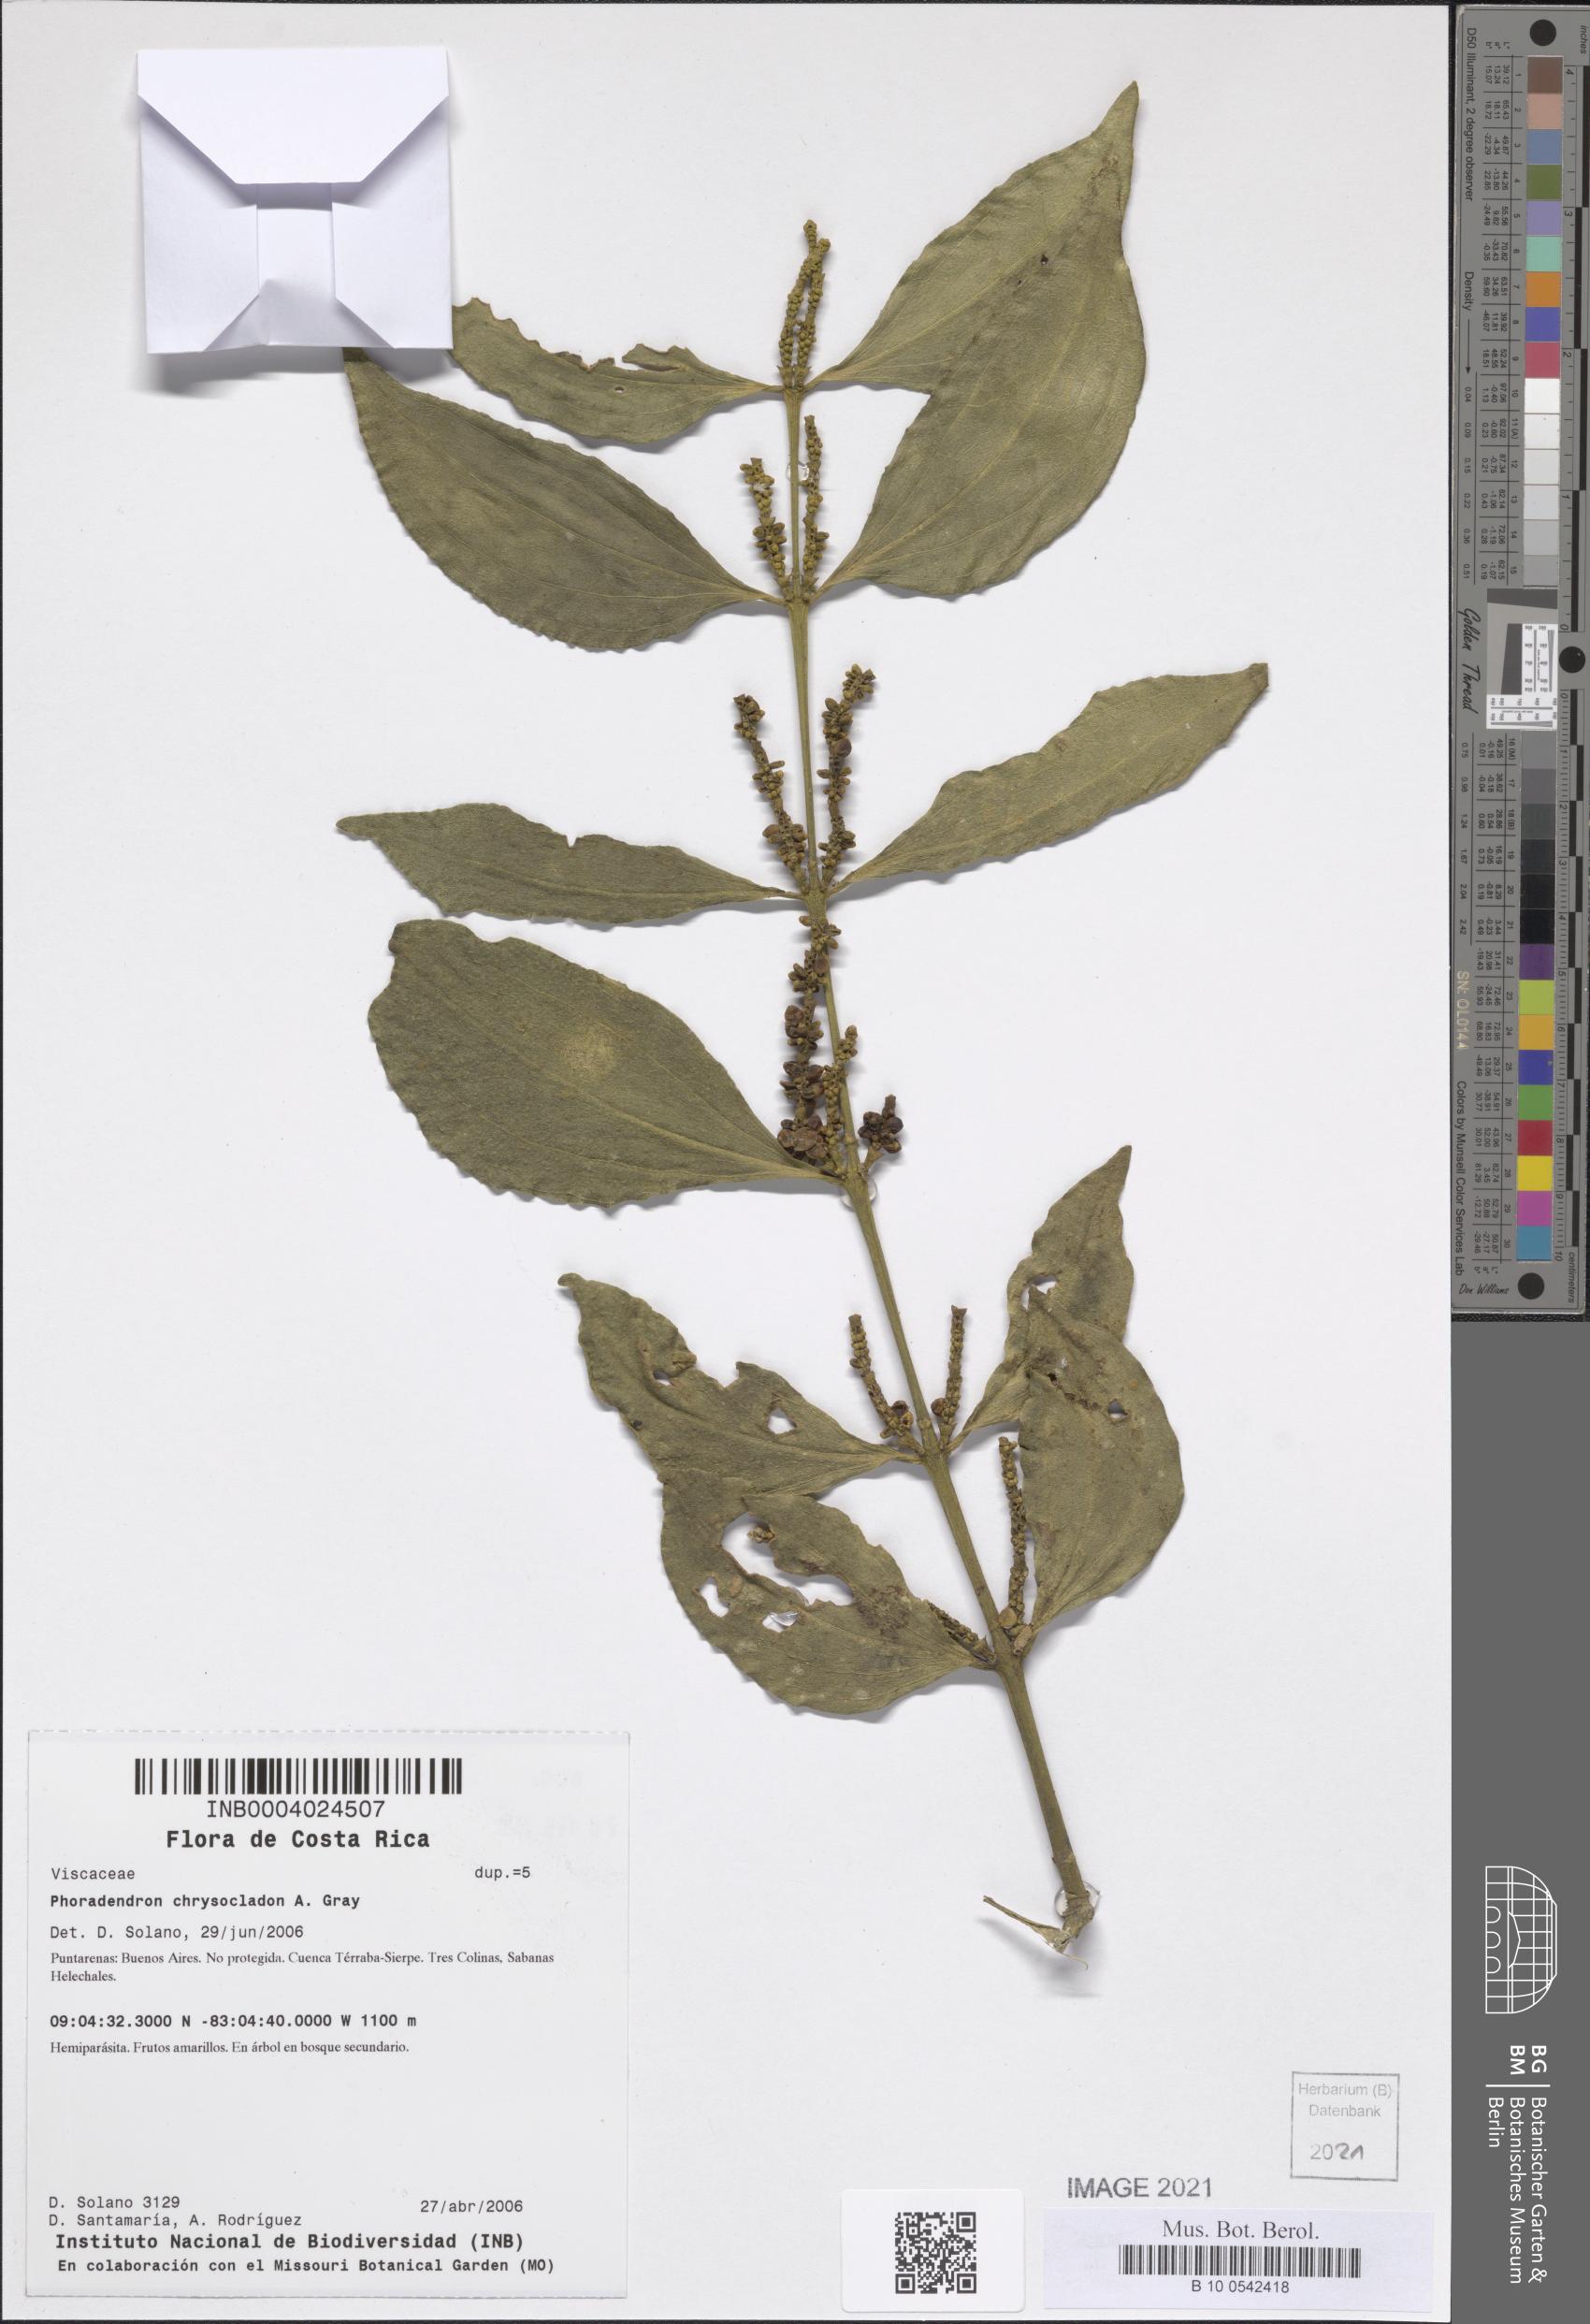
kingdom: Plantae
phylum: Tracheophyta
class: Magnoliopsida
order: Santalales
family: Viscaceae
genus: Phoradendron
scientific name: Phoradendron chrysocladon
